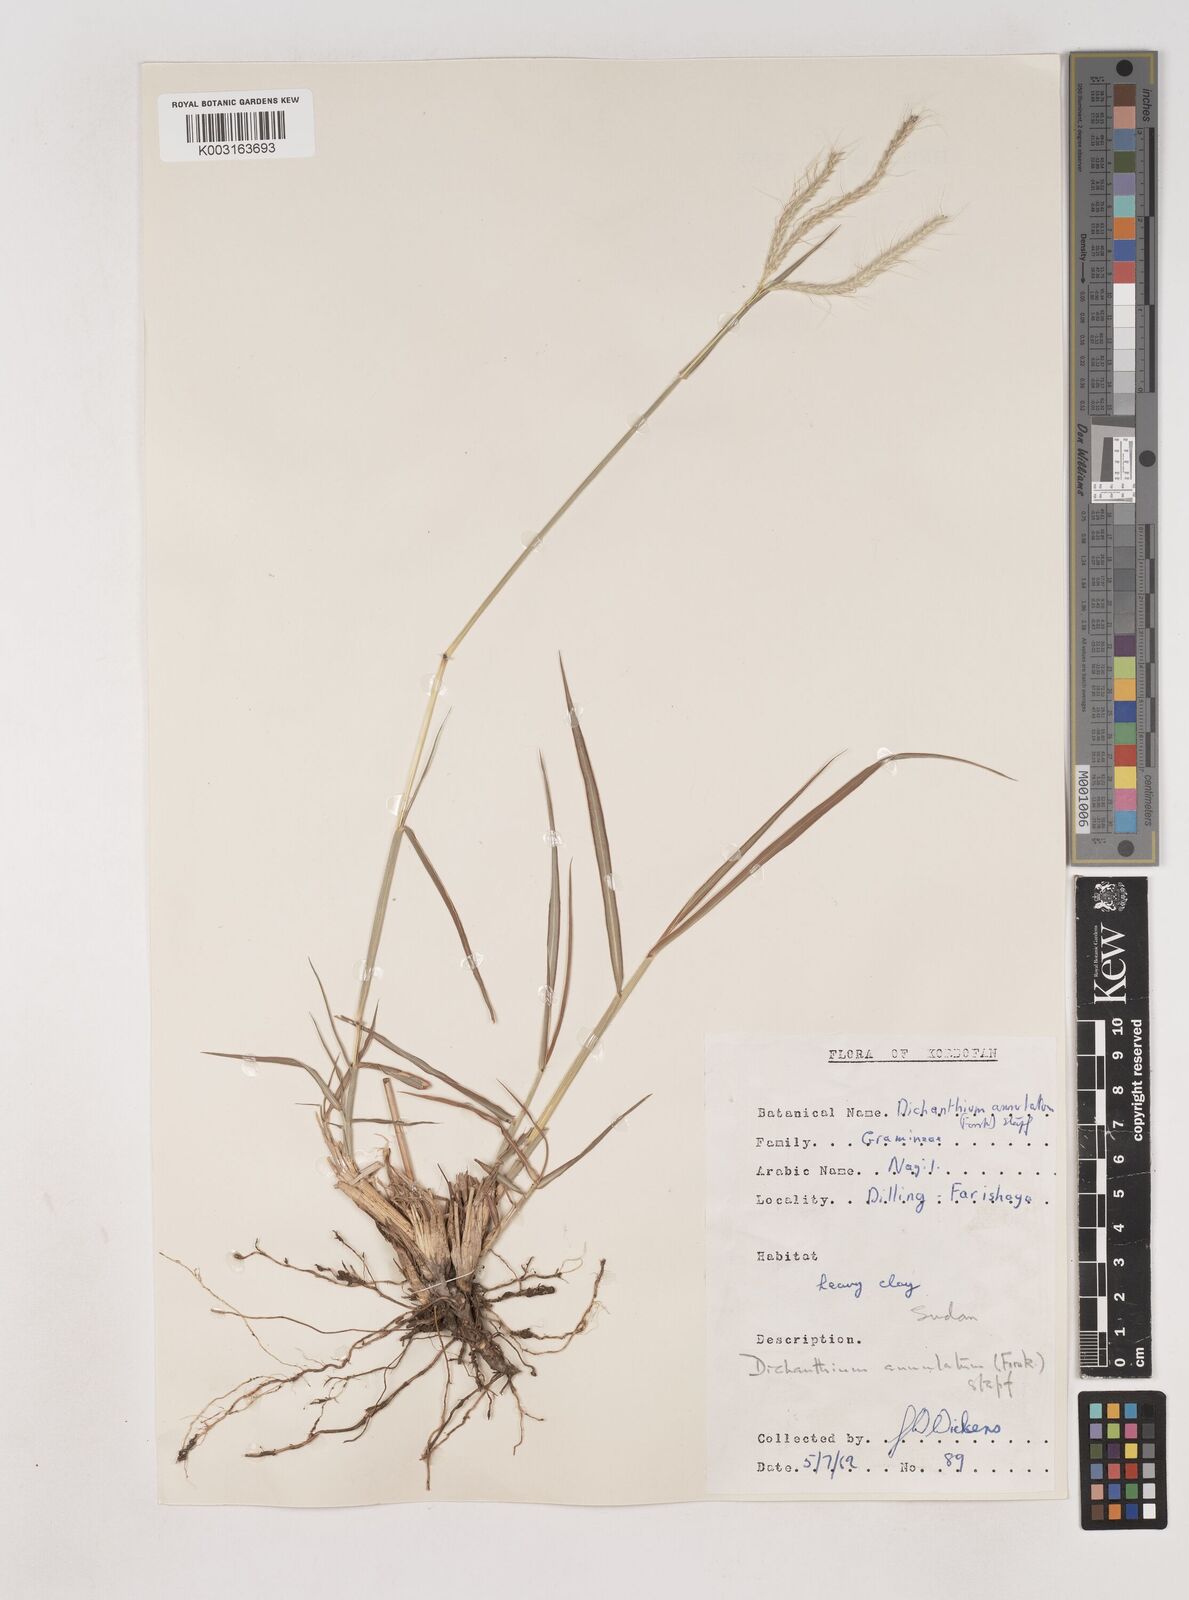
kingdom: Plantae
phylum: Tracheophyta
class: Liliopsida
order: Poales
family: Poaceae
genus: Dichanthium
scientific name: Dichanthium annulatum
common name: Kleberg's bluestem
